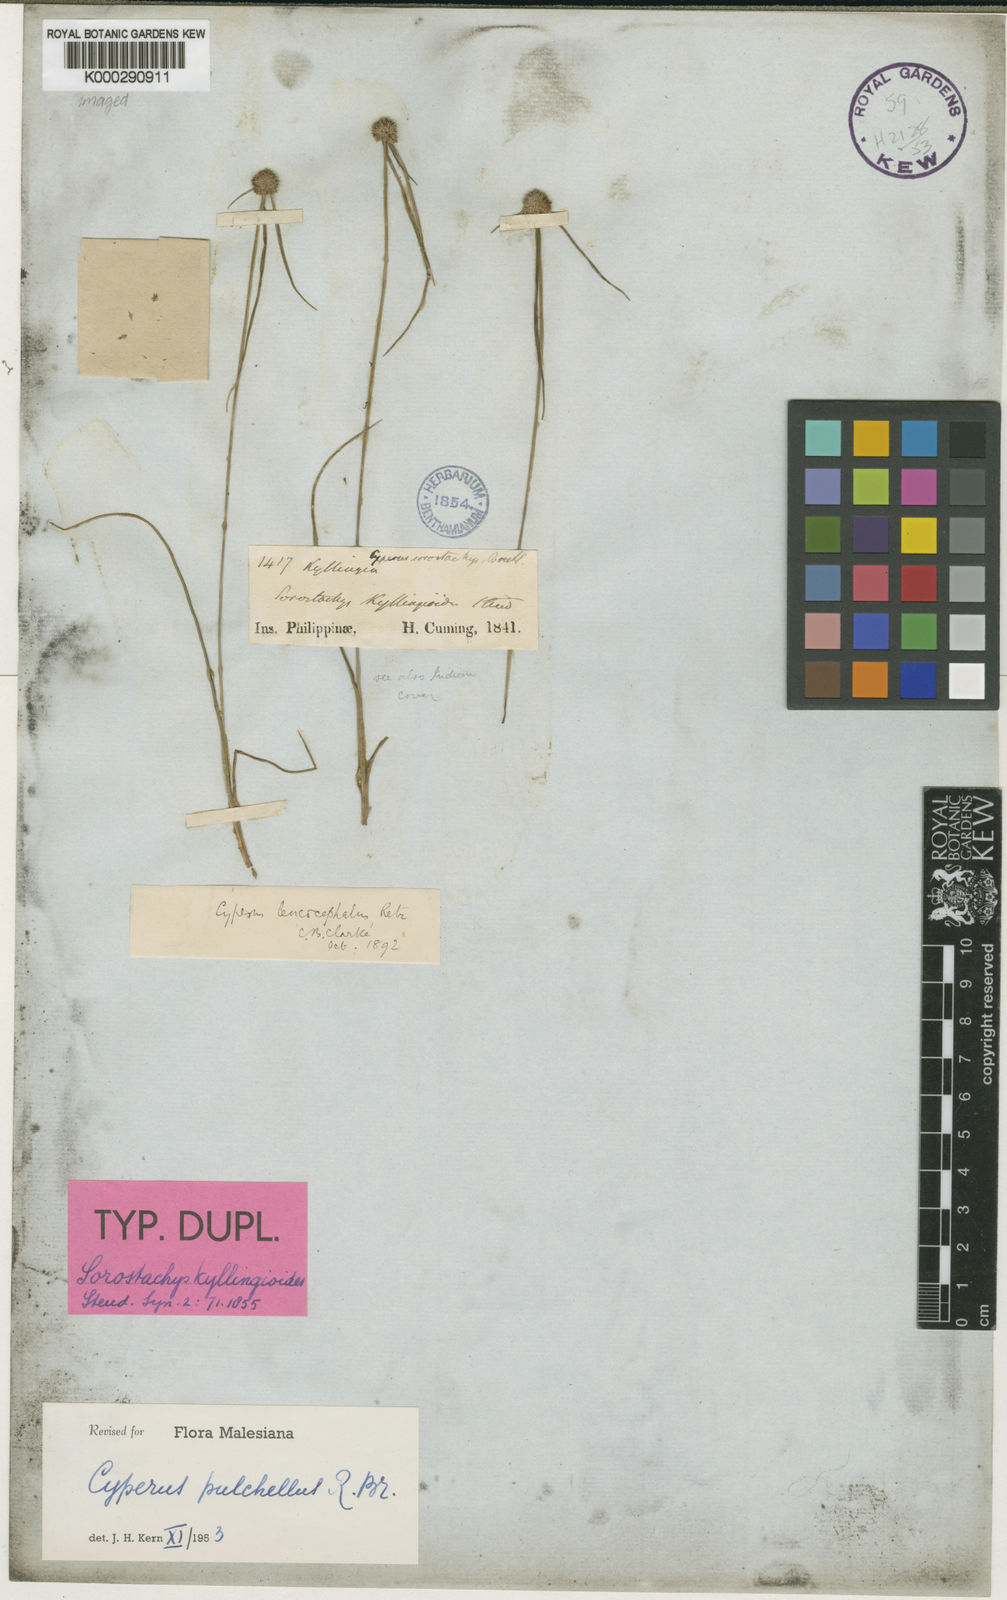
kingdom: Plantae
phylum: Tracheophyta
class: Liliopsida
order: Poales
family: Cyperaceae
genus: Cyperus
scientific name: Cyperus pulchellus
